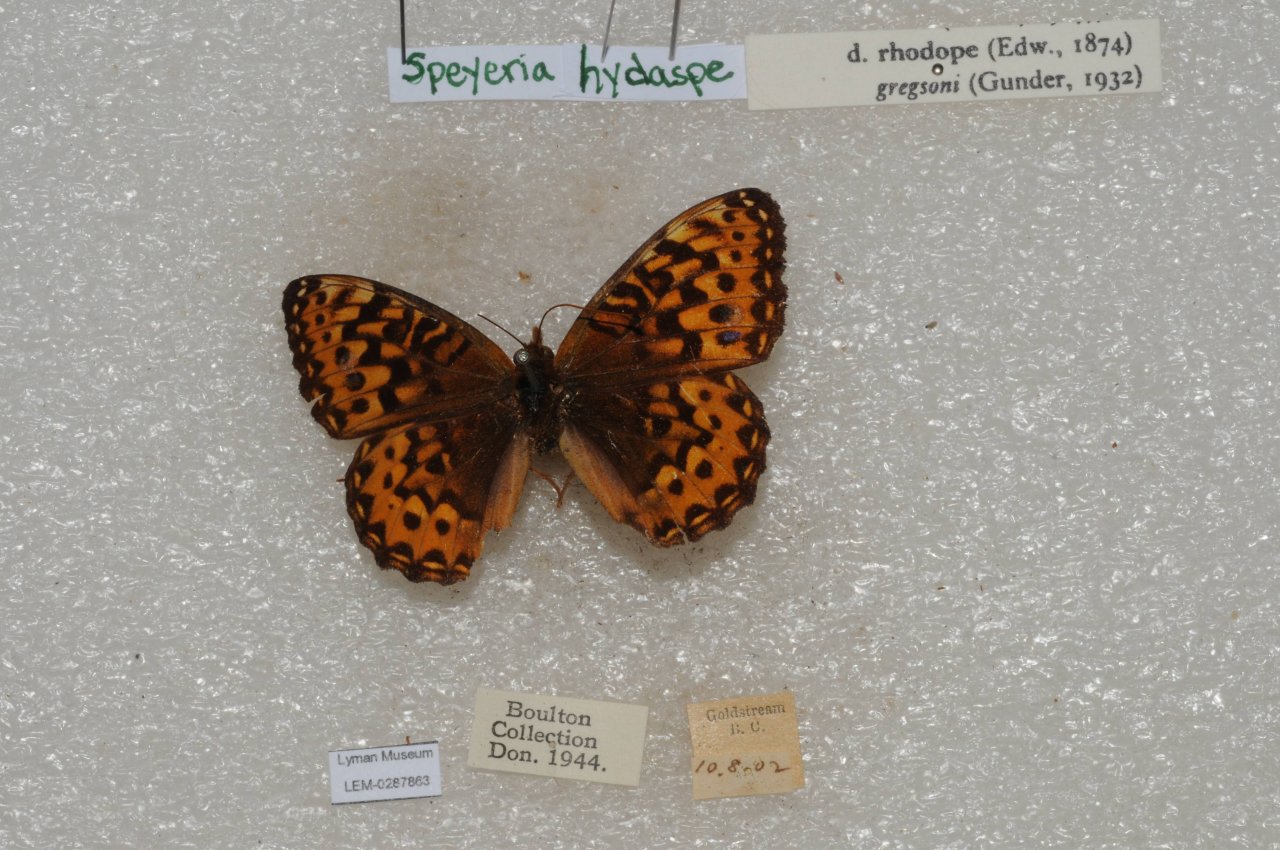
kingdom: Animalia
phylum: Arthropoda
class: Insecta
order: Lepidoptera
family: Nymphalidae
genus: Speyeria
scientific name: Speyeria hydaspe
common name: Hydaspe Fritillary
